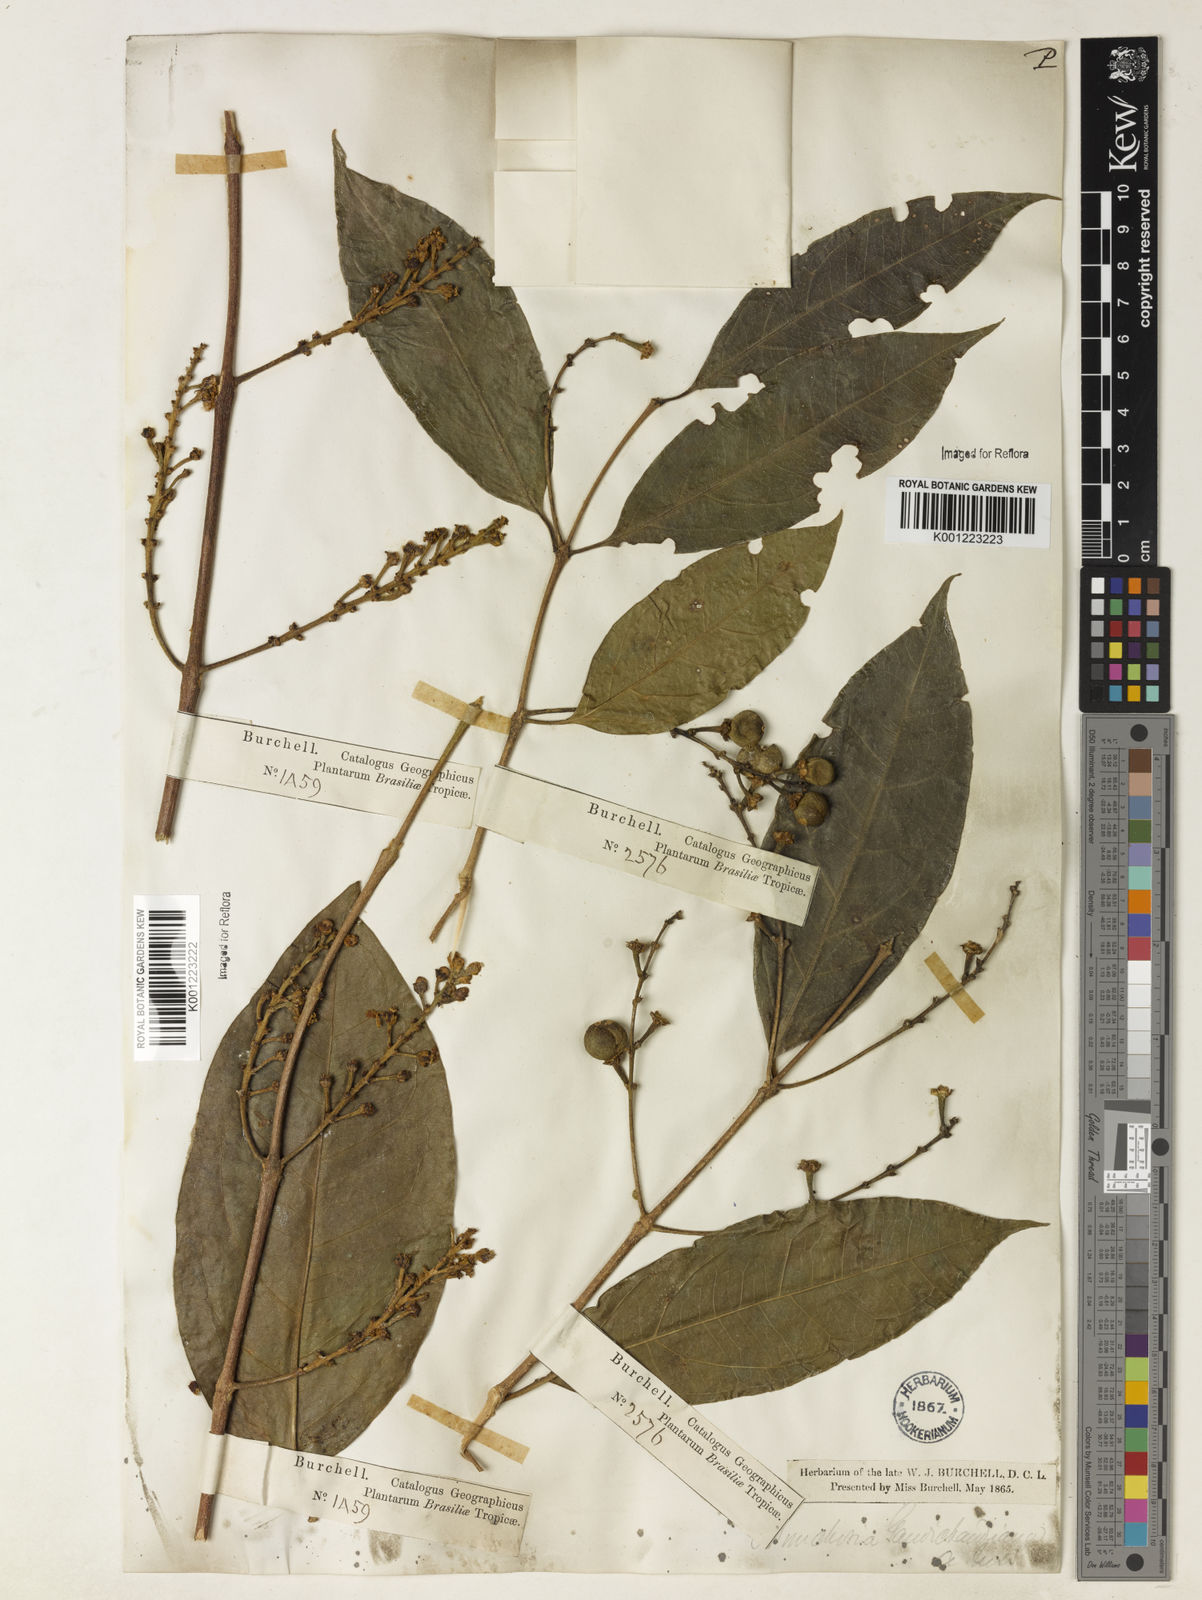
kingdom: Plantae
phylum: Tracheophyta
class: Magnoliopsida
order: Malpighiales
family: Malpighiaceae
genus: Bunchosia
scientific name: Bunchosia fluminensis
